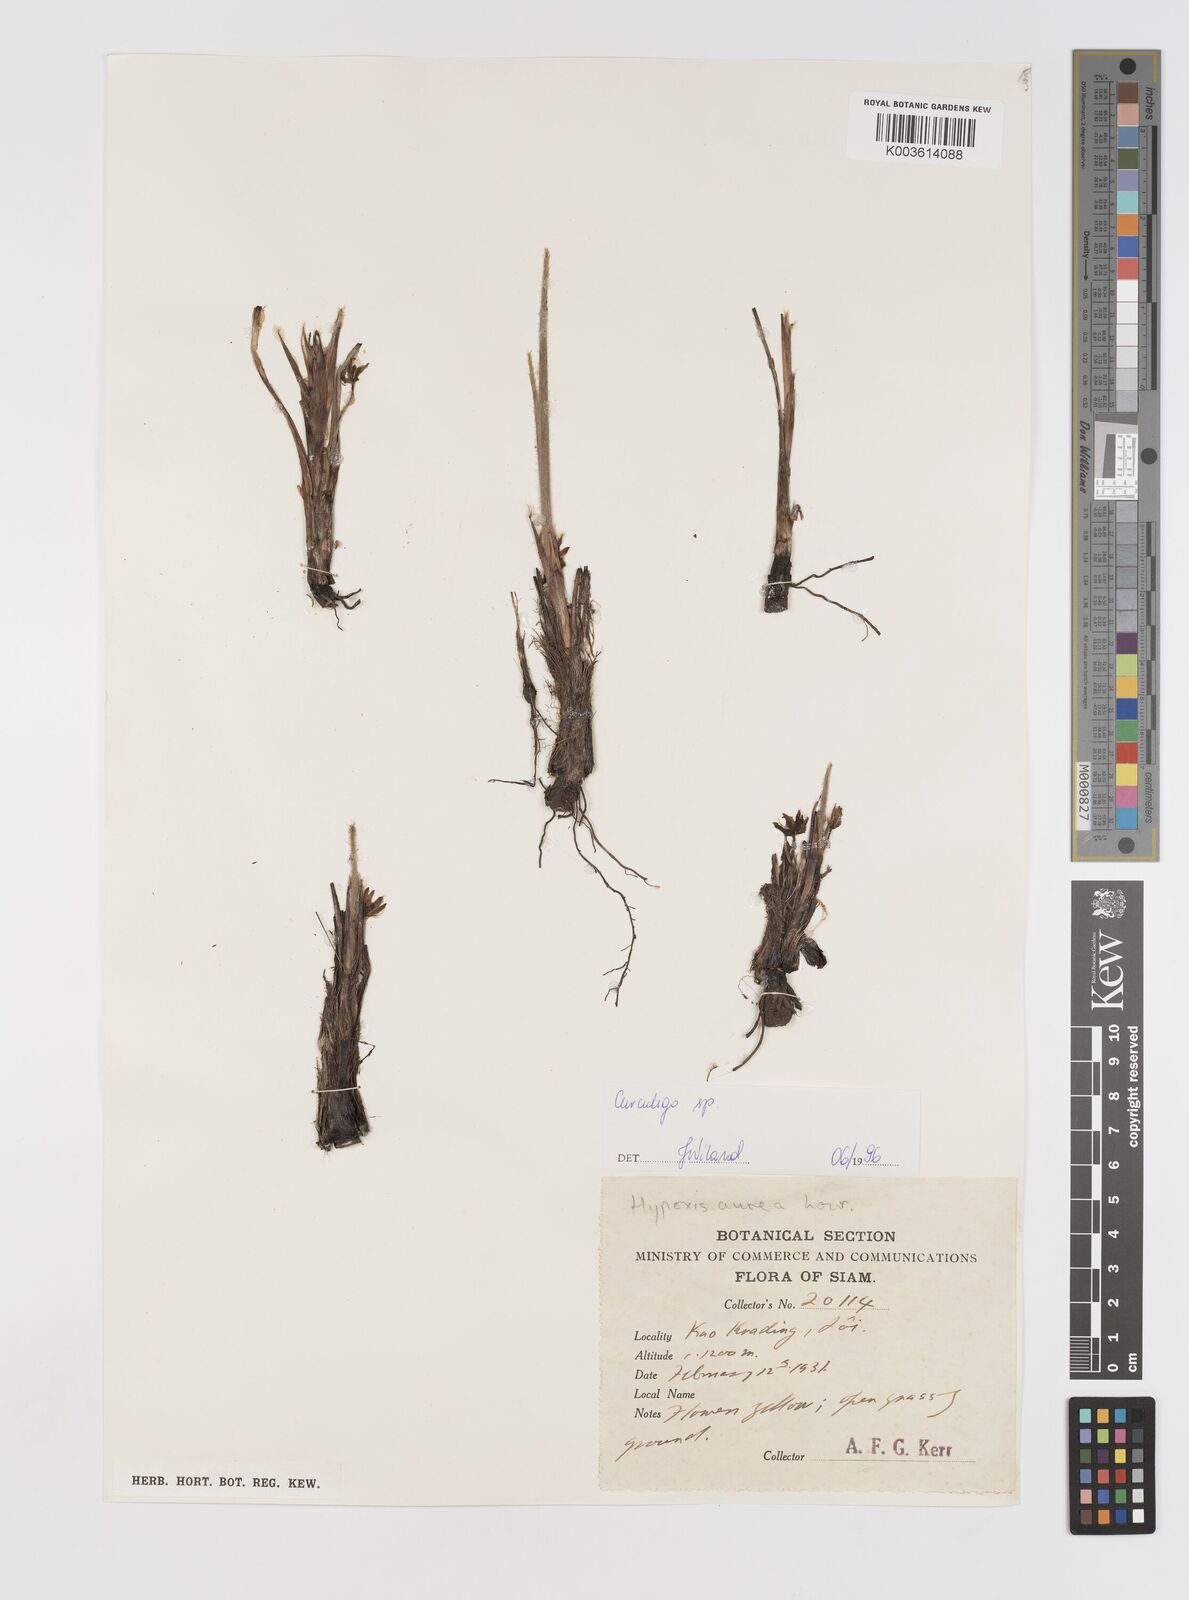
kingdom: Plantae
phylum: Tracheophyta
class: Liliopsida
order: Asparagales
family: Hypoxidaceae
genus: Curculigo
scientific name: Curculigo
